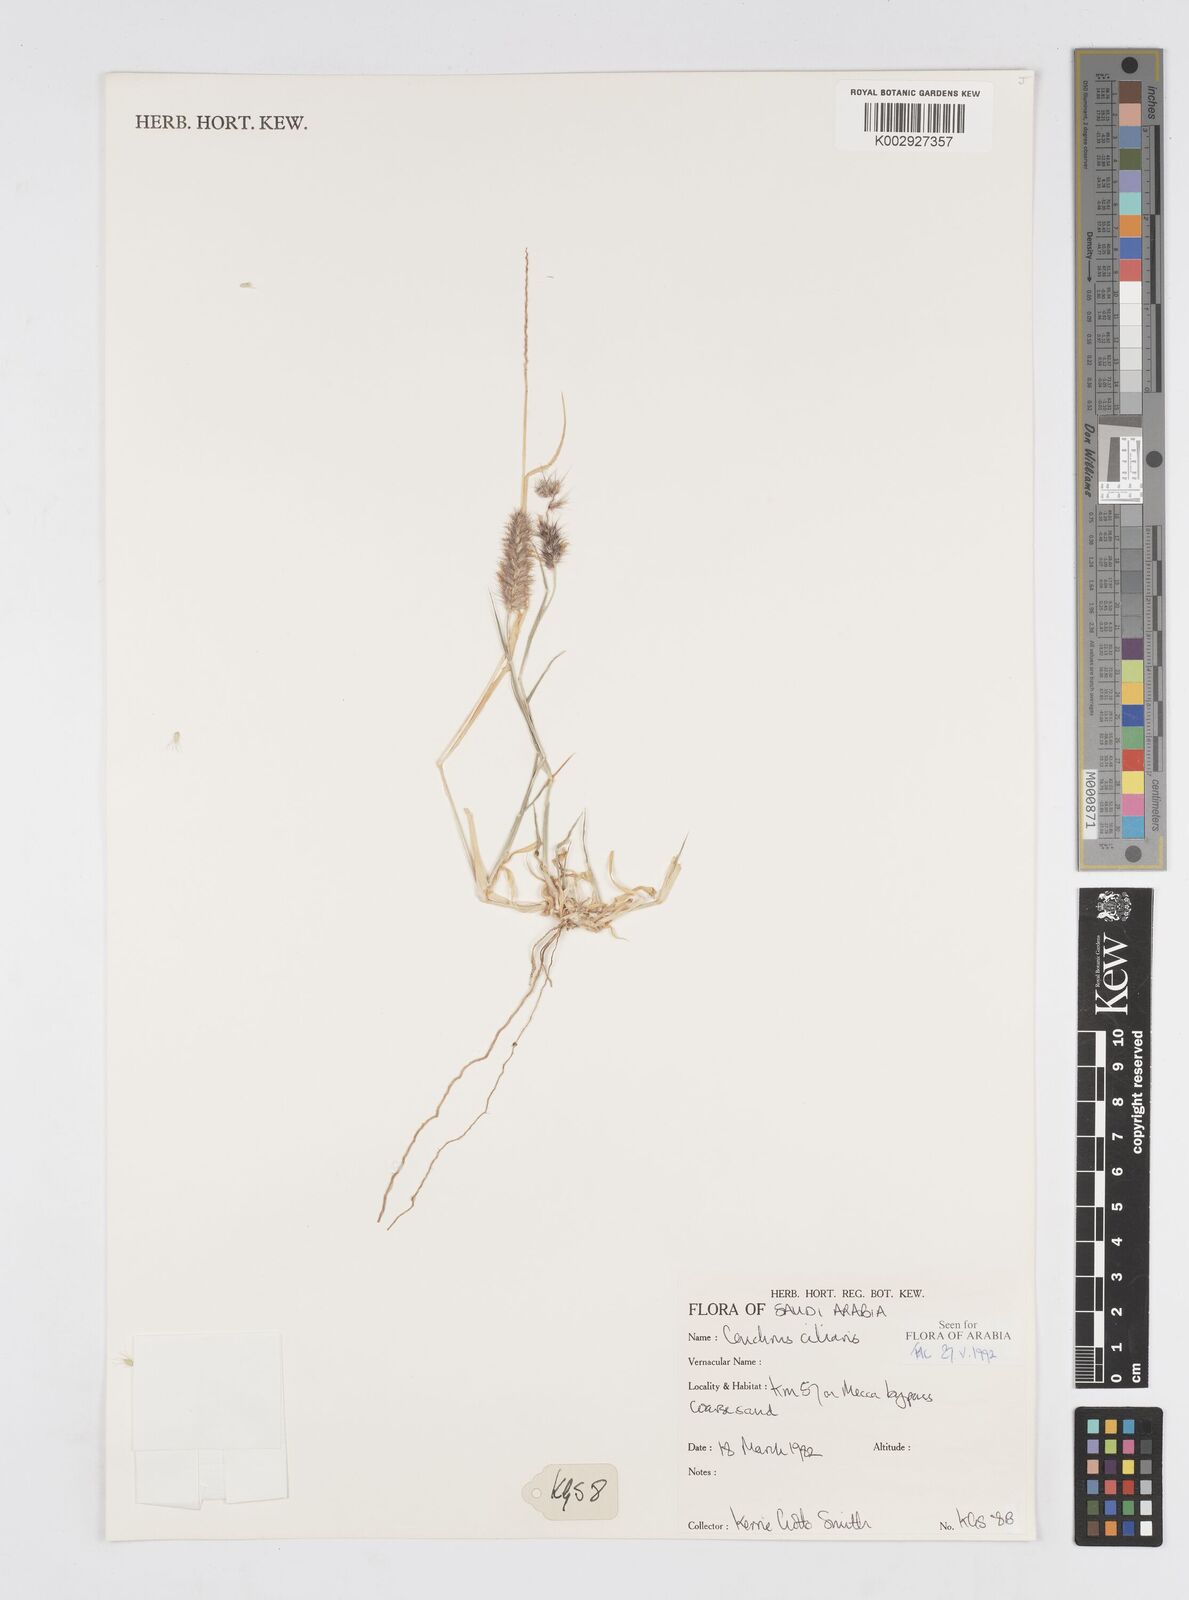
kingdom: Plantae
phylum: Tracheophyta
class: Liliopsida
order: Poales
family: Poaceae
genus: Cenchrus
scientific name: Cenchrus ciliaris
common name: Buffelgrass
